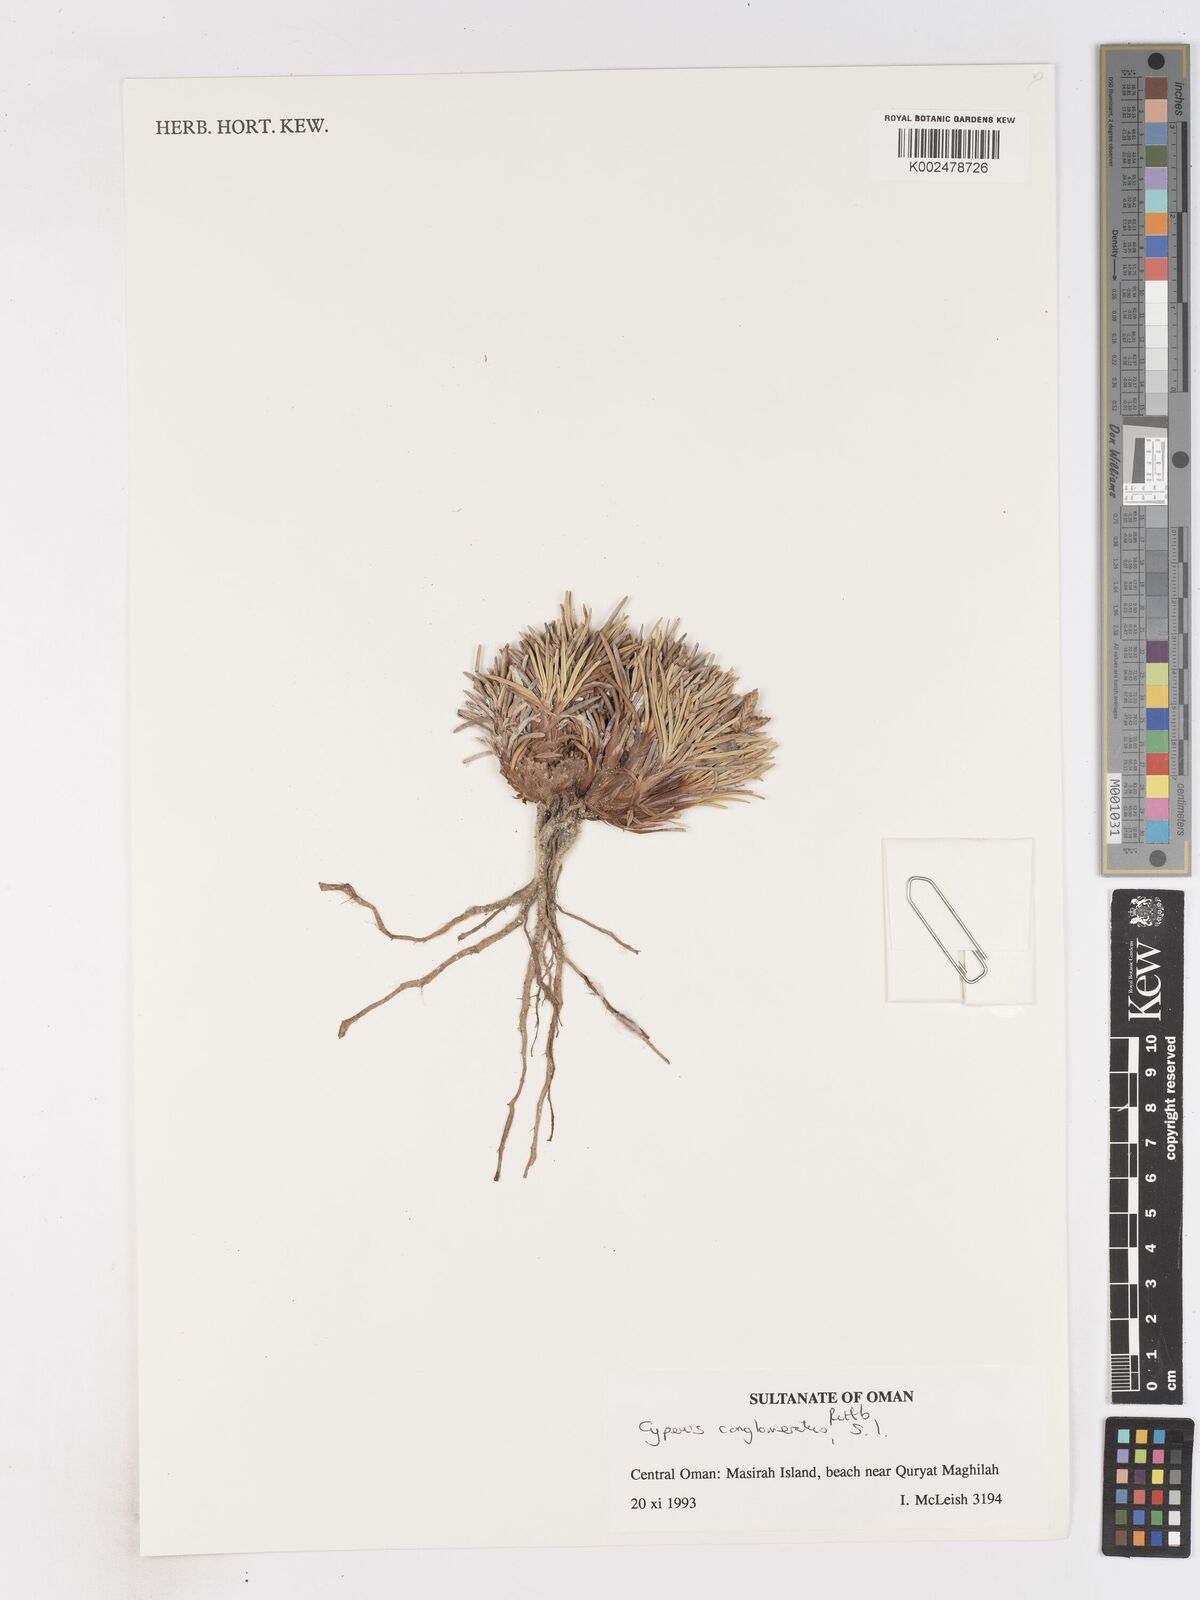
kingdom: Plantae
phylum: Tracheophyta
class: Liliopsida
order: Poales
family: Cyperaceae
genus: Cyperus
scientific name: Cyperus conglomeratus
